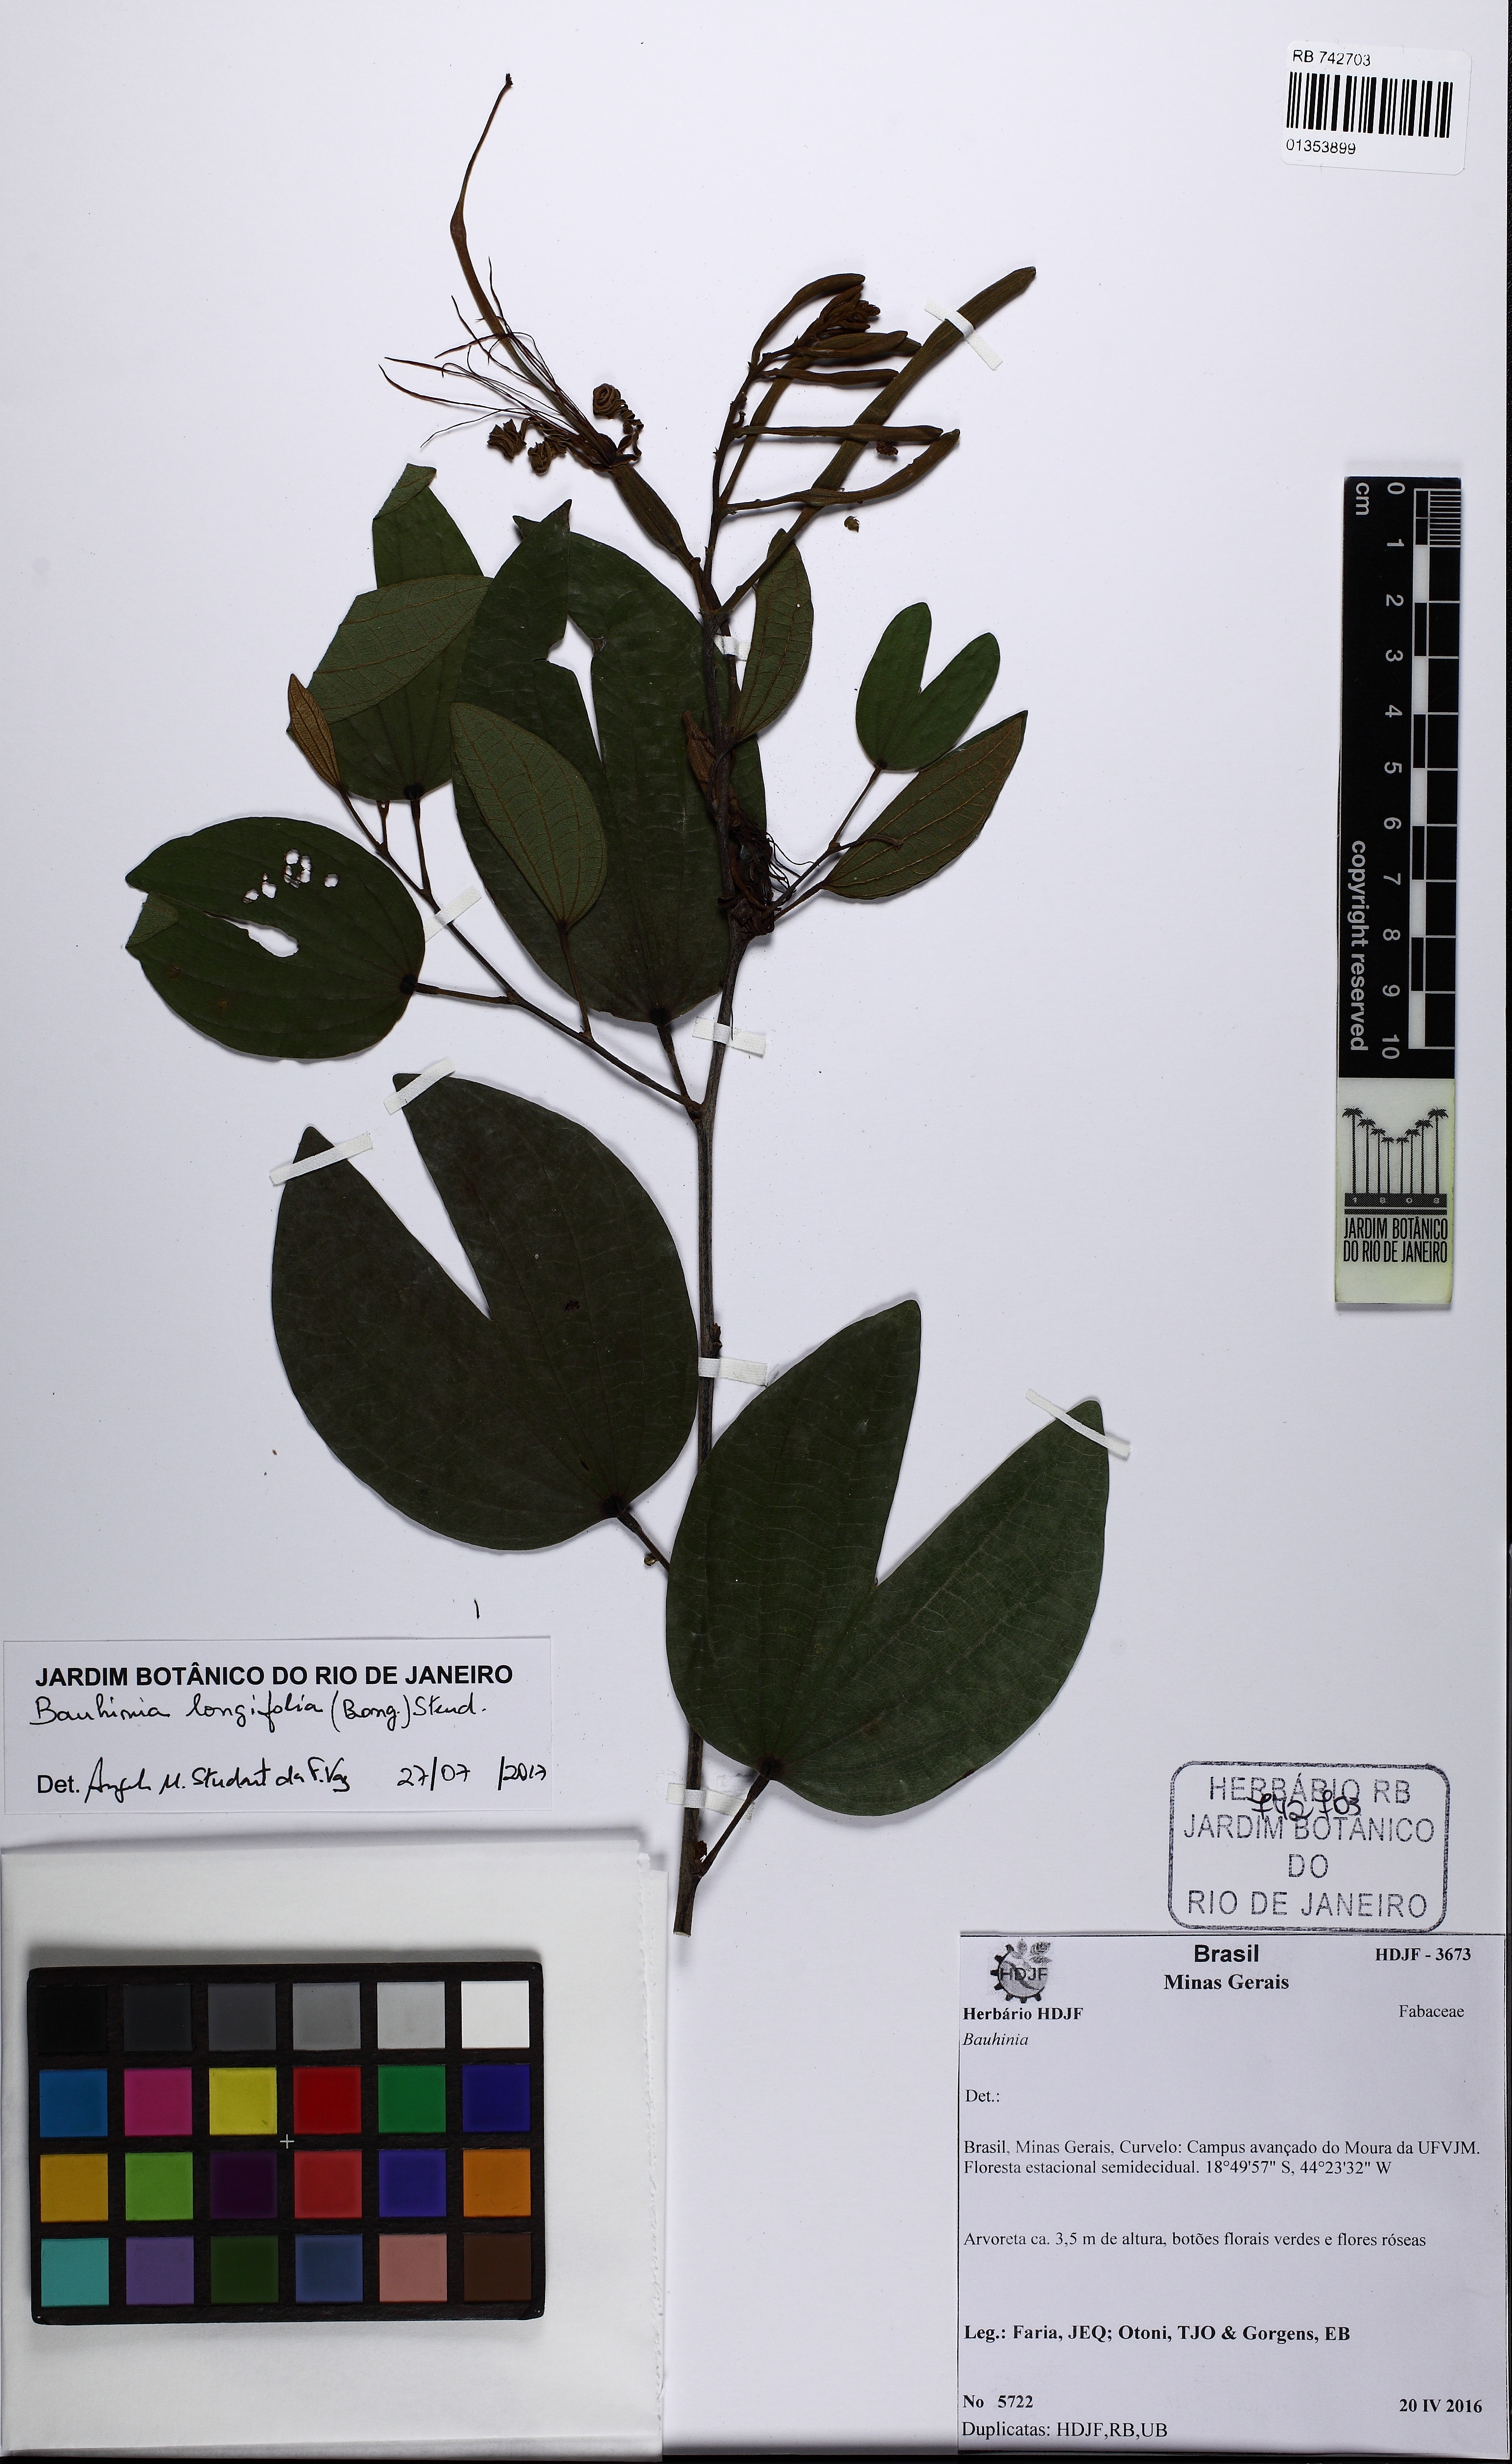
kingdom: Plantae
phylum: Tracheophyta
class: Magnoliopsida
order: Fabales
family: Fabaceae
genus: Bauhinia
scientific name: Bauhinia longifolia
